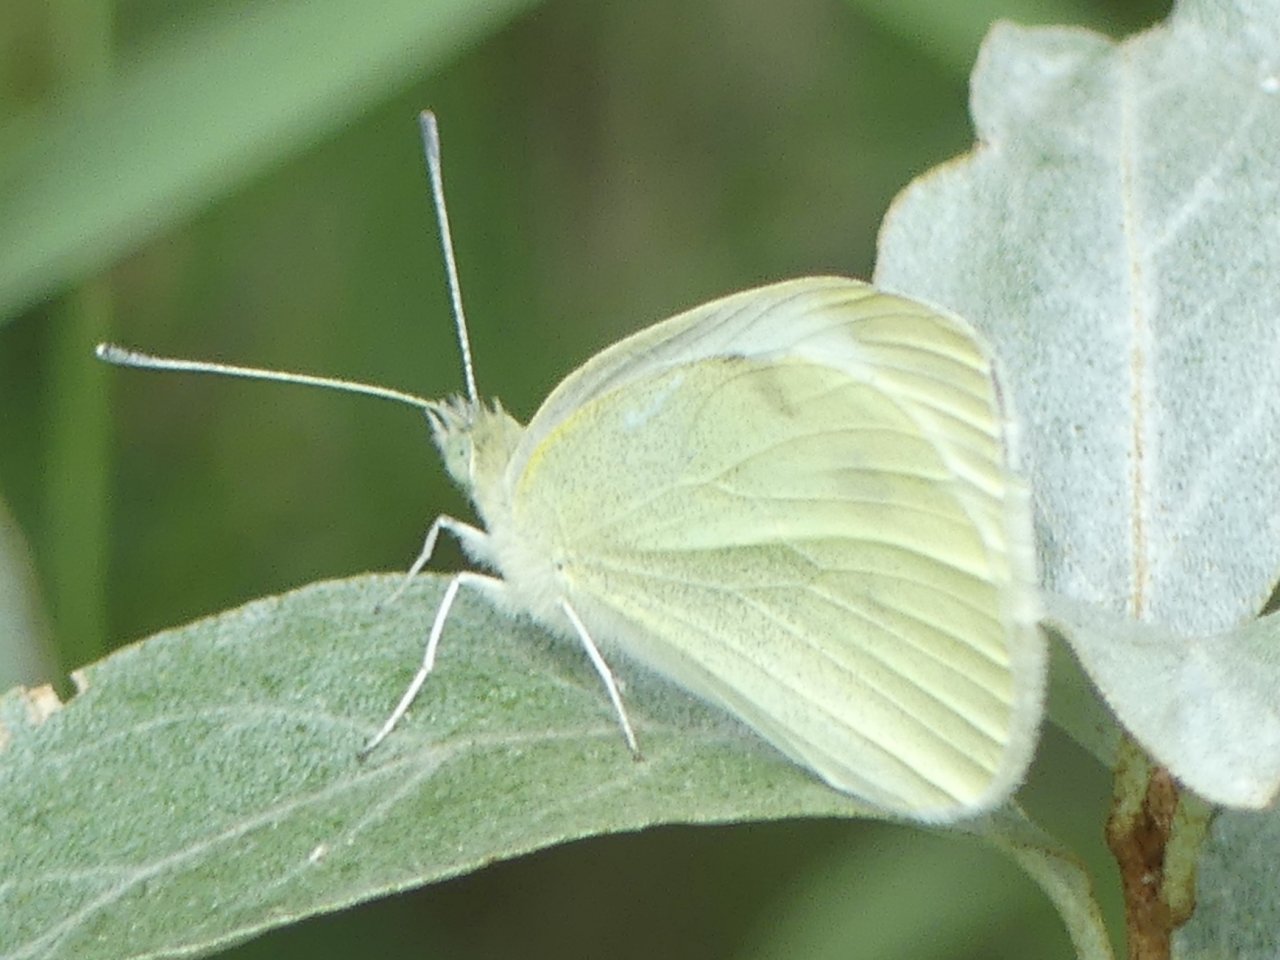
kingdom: Animalia
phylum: Arthropoda
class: Insecta
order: Lepidoptera
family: Pieridae
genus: Pieris
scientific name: Pieris rapae
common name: Cabbage White
